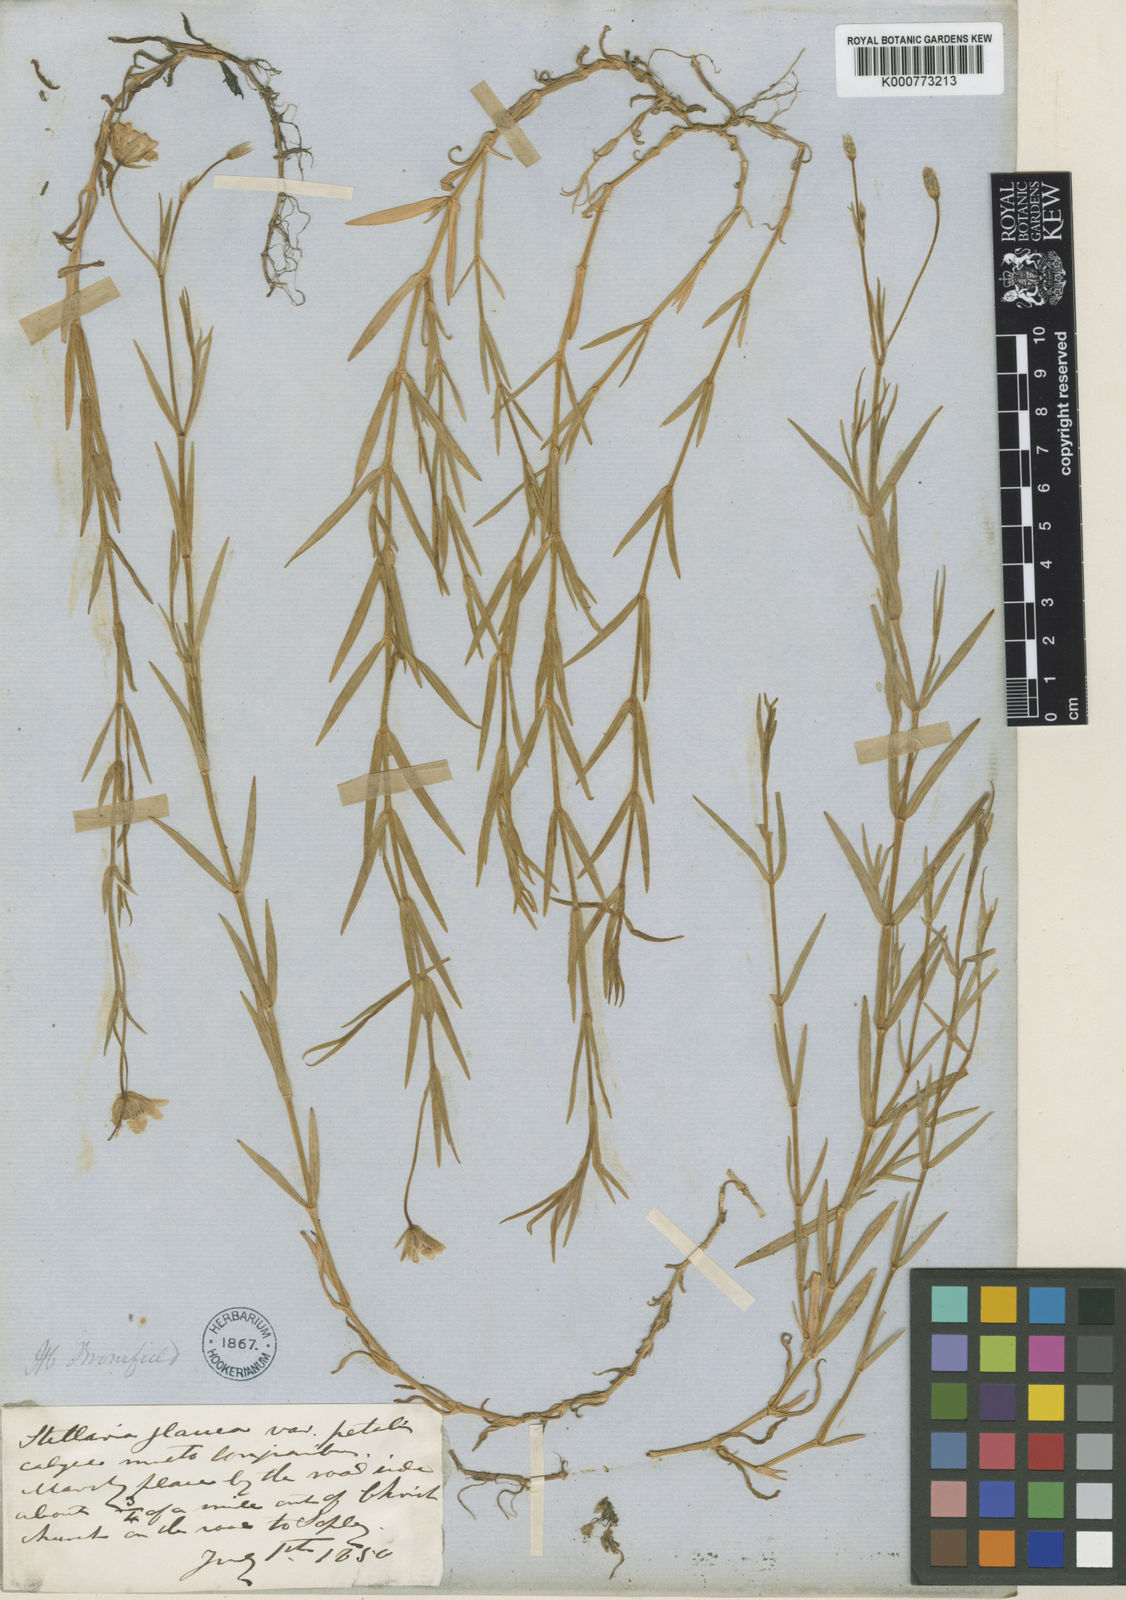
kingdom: Plantae
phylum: Tracheophyta
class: Magnoliopsida
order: Caryophyllales
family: Caryophyllaceae
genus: Stellaria
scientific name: Stellaria
